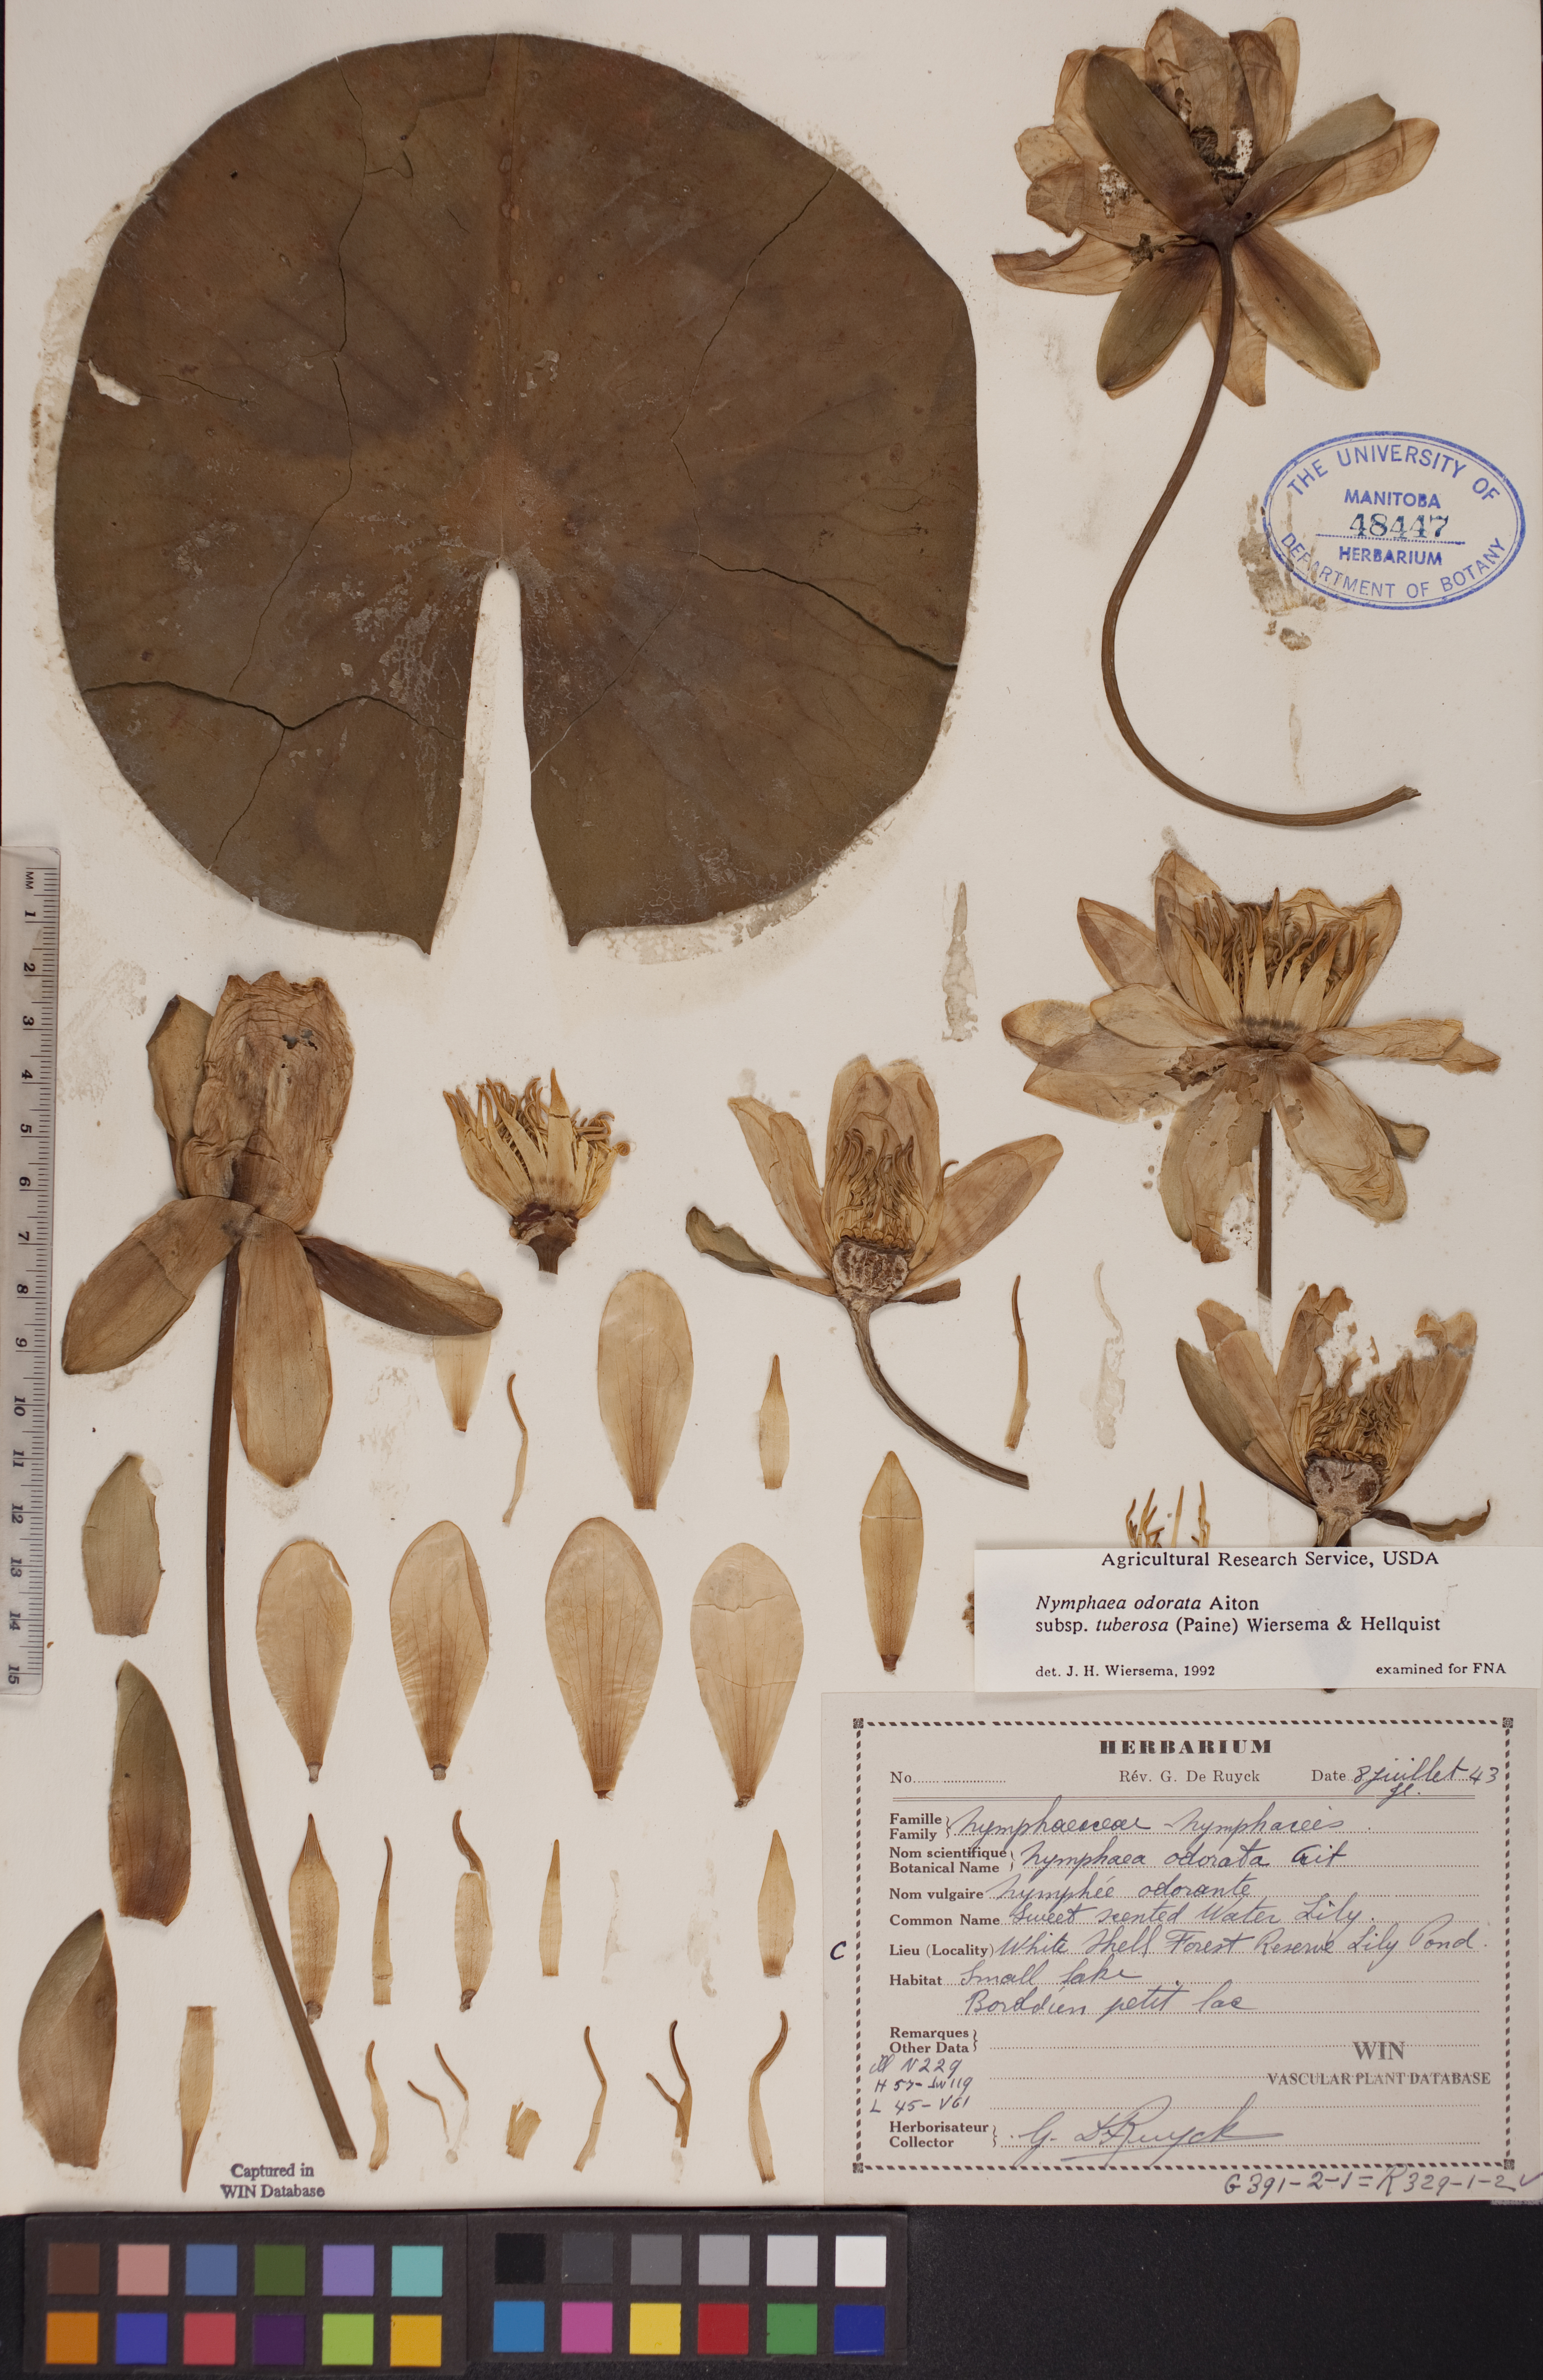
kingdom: Plantae
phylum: Tracheophyta
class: Magnoliopsida
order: Nymphaeales
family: Nymphaeaceae
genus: Nymphaea
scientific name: Nymphaea odorata
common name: Fragrant water-lily
